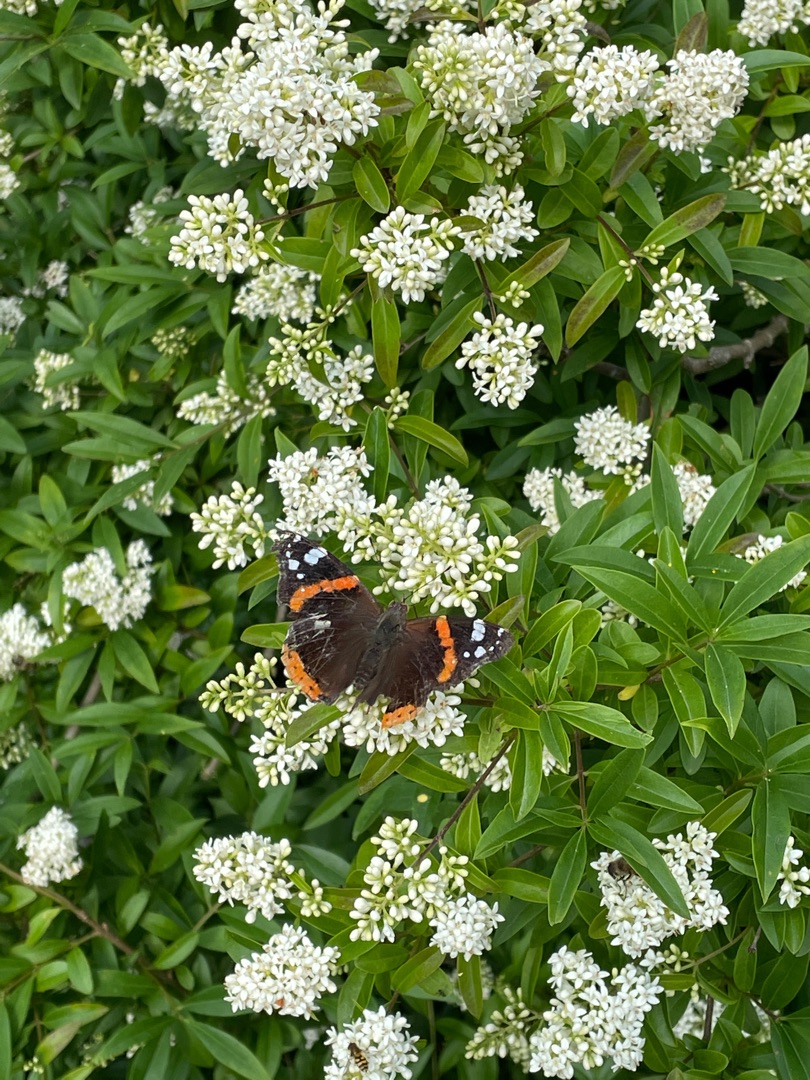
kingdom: Animalia
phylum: Arthropoda
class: Insecta
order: Lepidoptera
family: Nymphalidae
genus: Vanessa
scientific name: Vanessa atalanta
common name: Admiral
